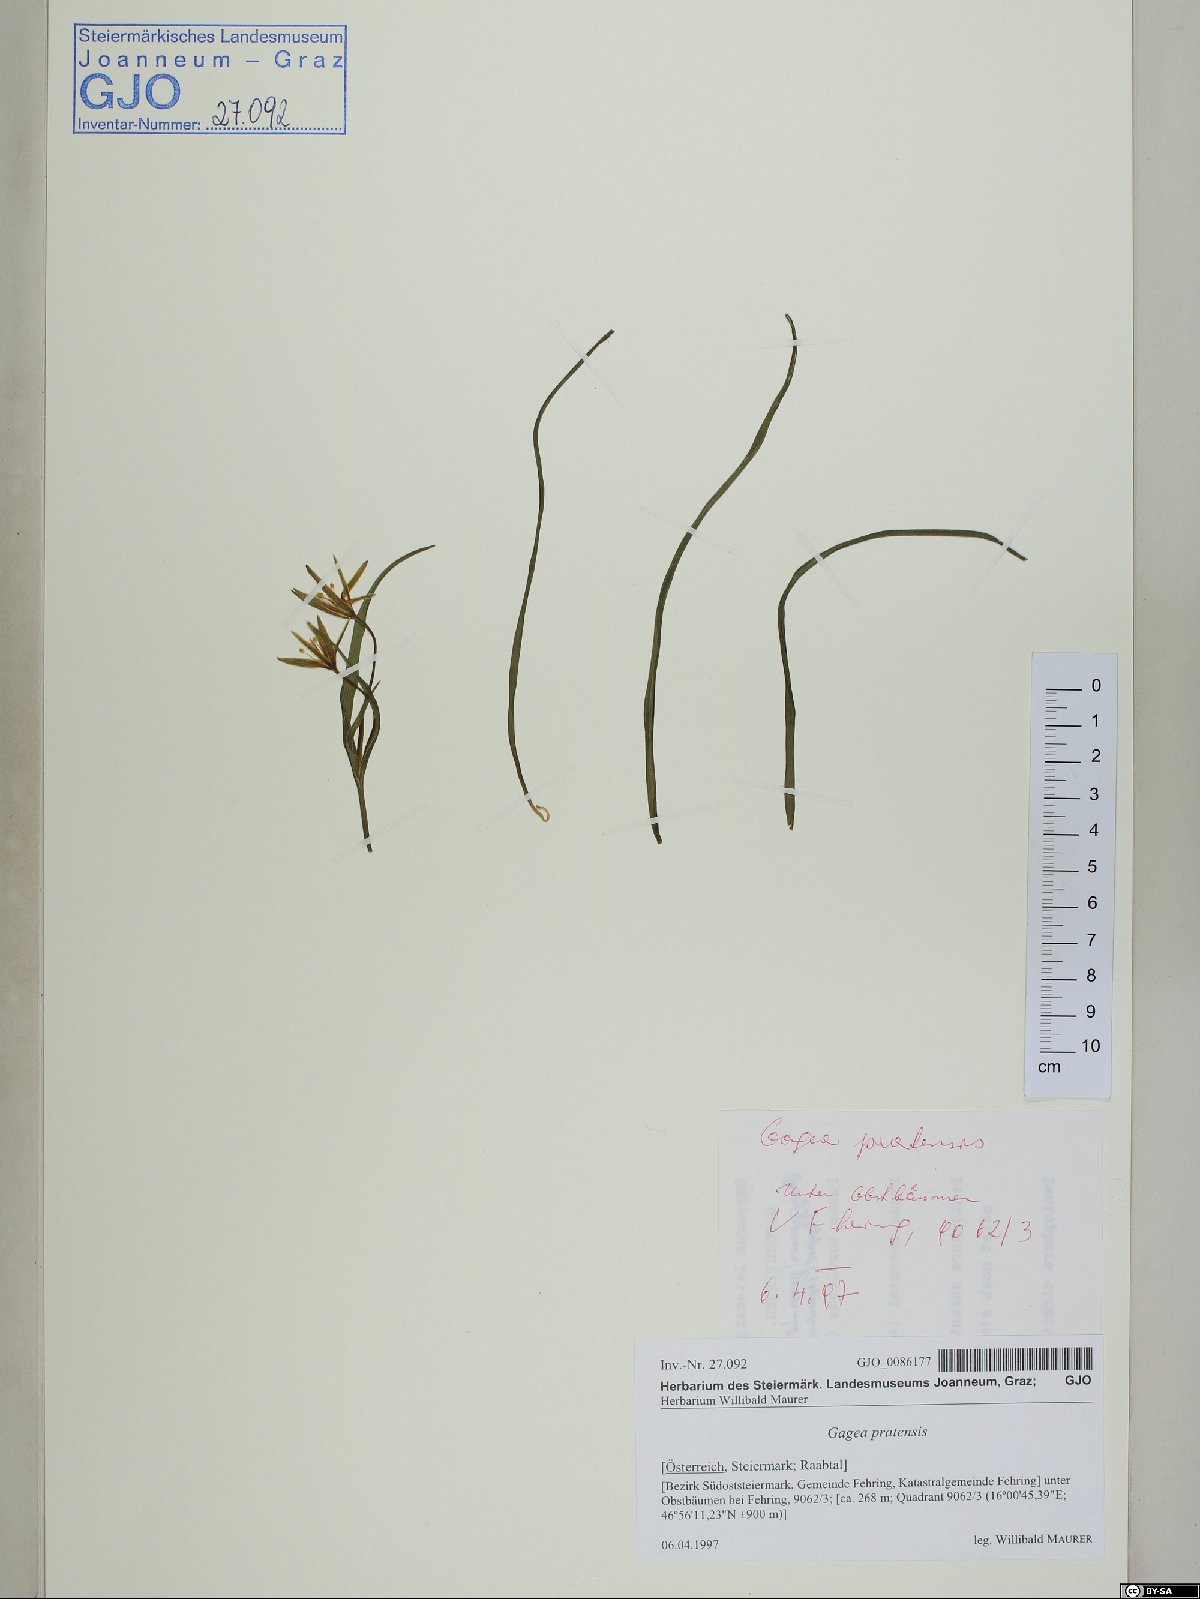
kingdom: Plantae
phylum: Tracheophyta
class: Liliopsida
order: Liliales
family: Liliaceae
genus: Gagea
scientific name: Gagea pratensis
